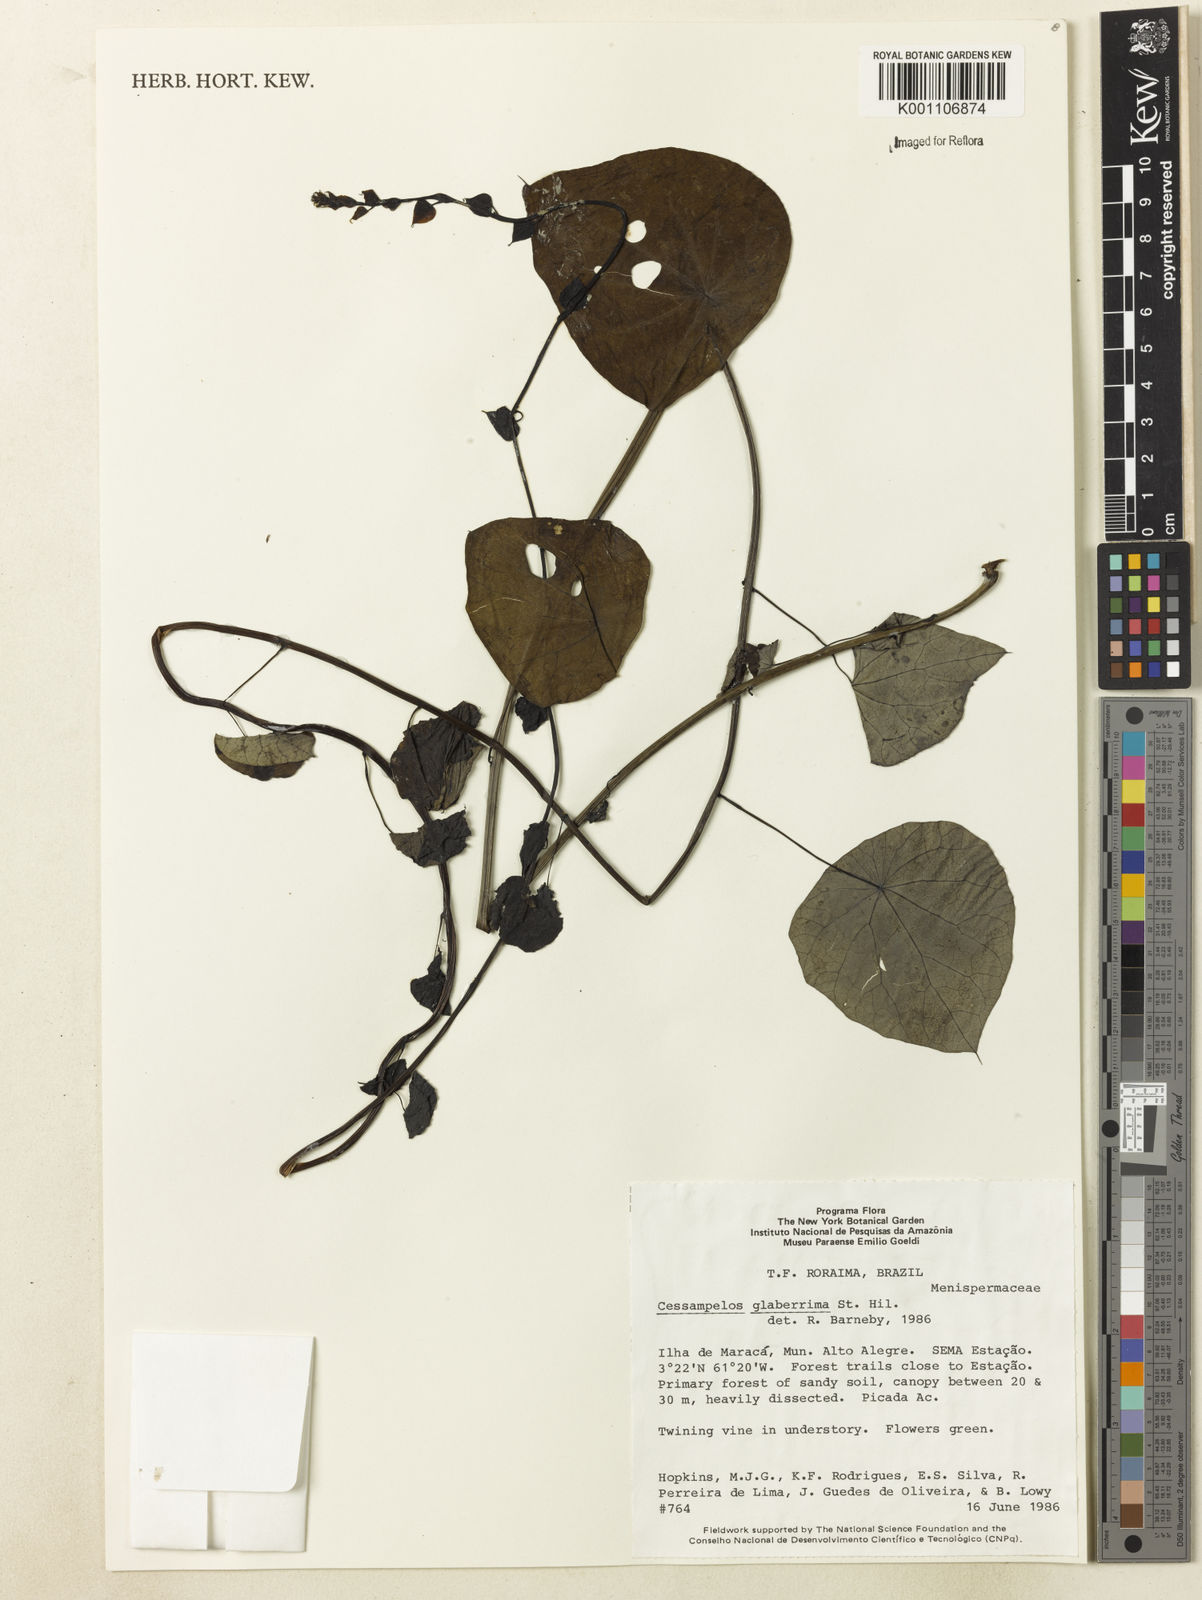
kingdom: Plantae
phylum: Tracheophyta
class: Magnoliopsida
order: Ranunculales
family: Menispermaceae
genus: Cissampelos
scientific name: Cissampelos glaberrima
